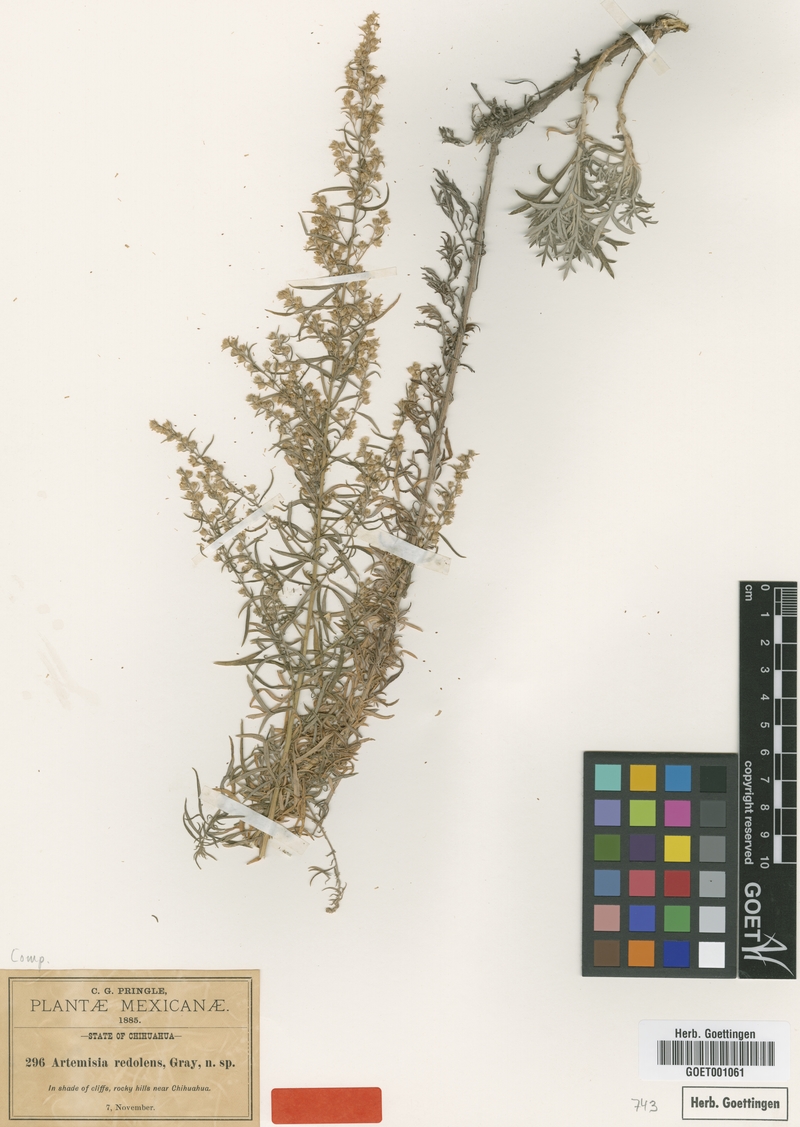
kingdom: Plantae
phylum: Tracheophyta
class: Magnoliopsida
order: Asterales
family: Asteraceae
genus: Artemisia
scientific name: Artemisia ludoviciana
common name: Western mugwort
